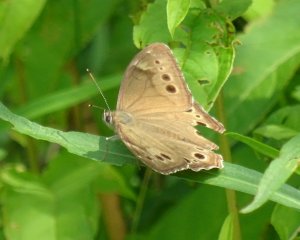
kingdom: Animalia
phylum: Arthropoda
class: Insecta
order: Lepidoptera
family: Nymphalidae
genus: Lethe
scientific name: Lethe anthedon
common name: Northern Pearly-Eye
